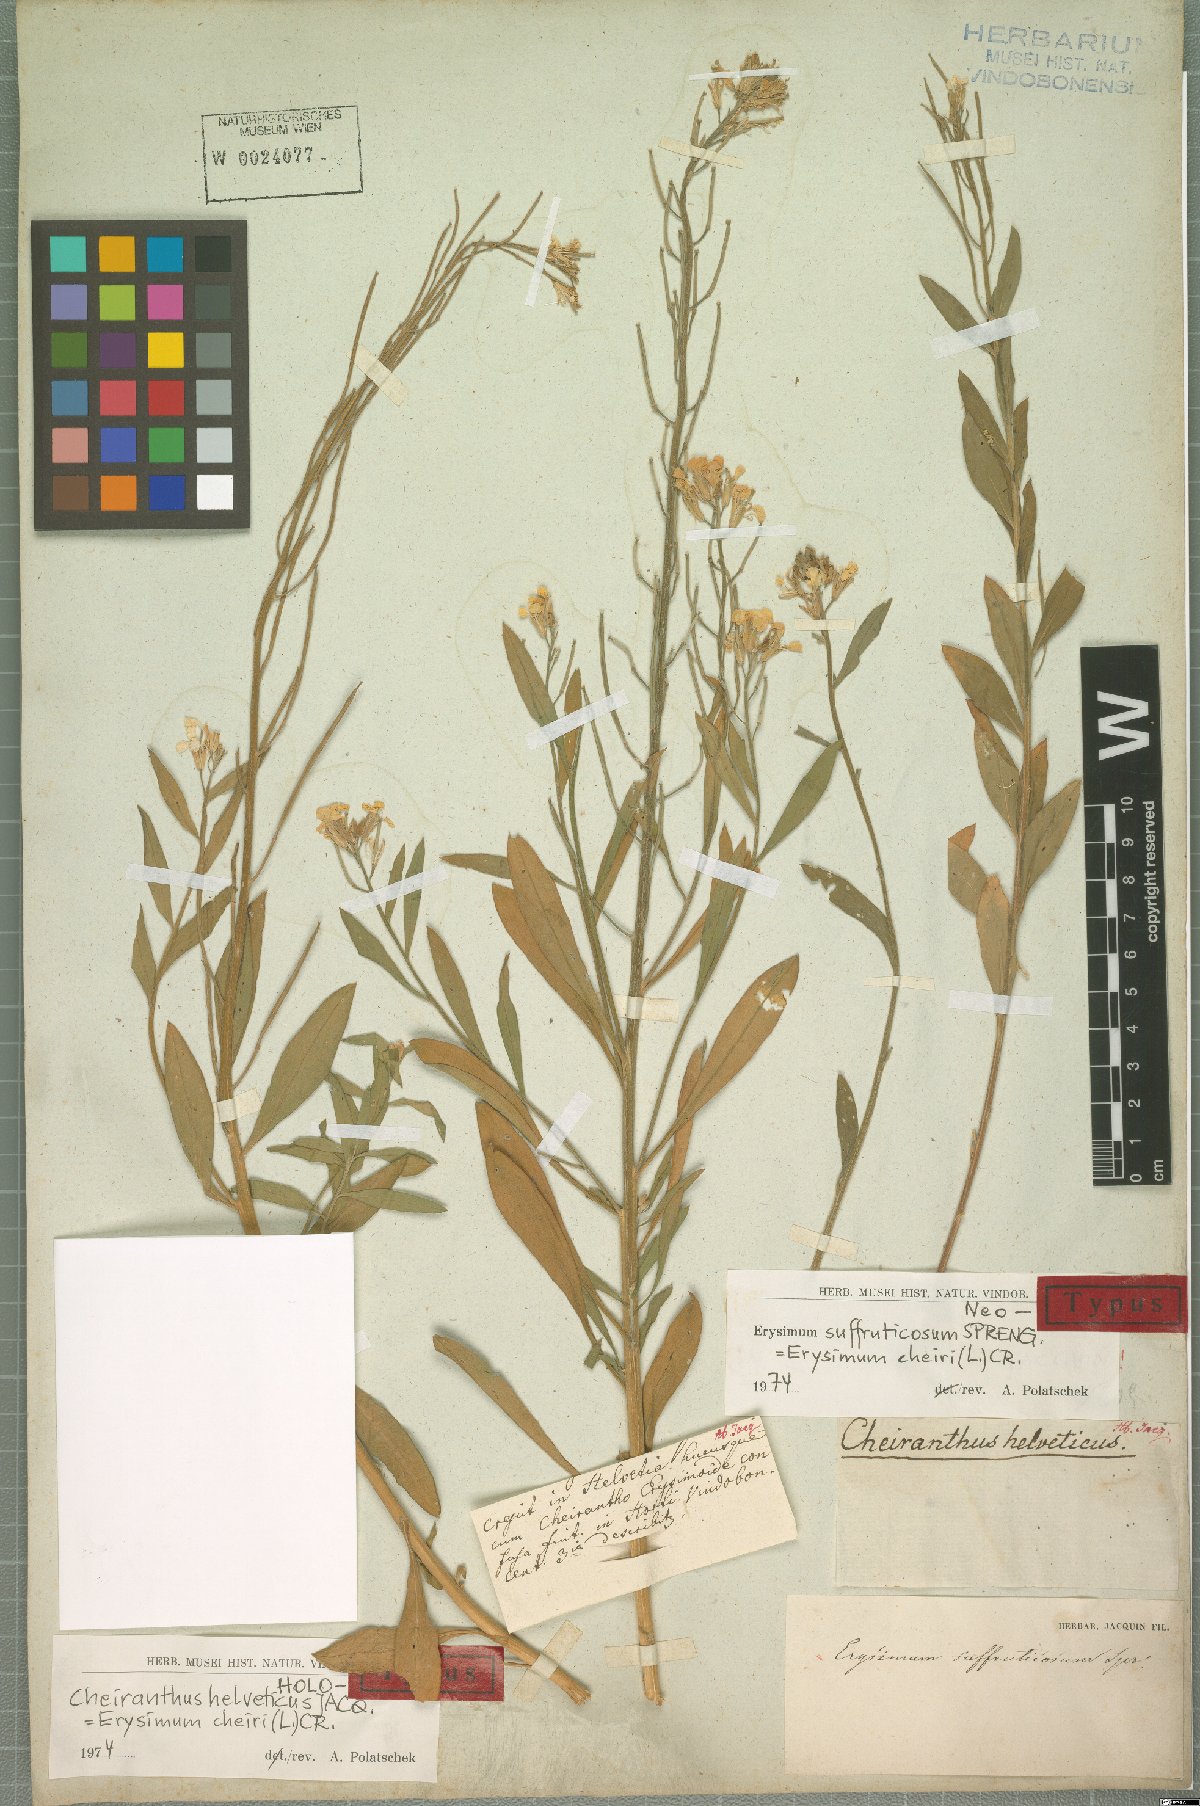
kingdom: Plantae
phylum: Tracheophyta
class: Magnoliopsida
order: Brassicales
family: Brassicaceae
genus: Erysimum
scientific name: Erysimum cheiri
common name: Wallflower
